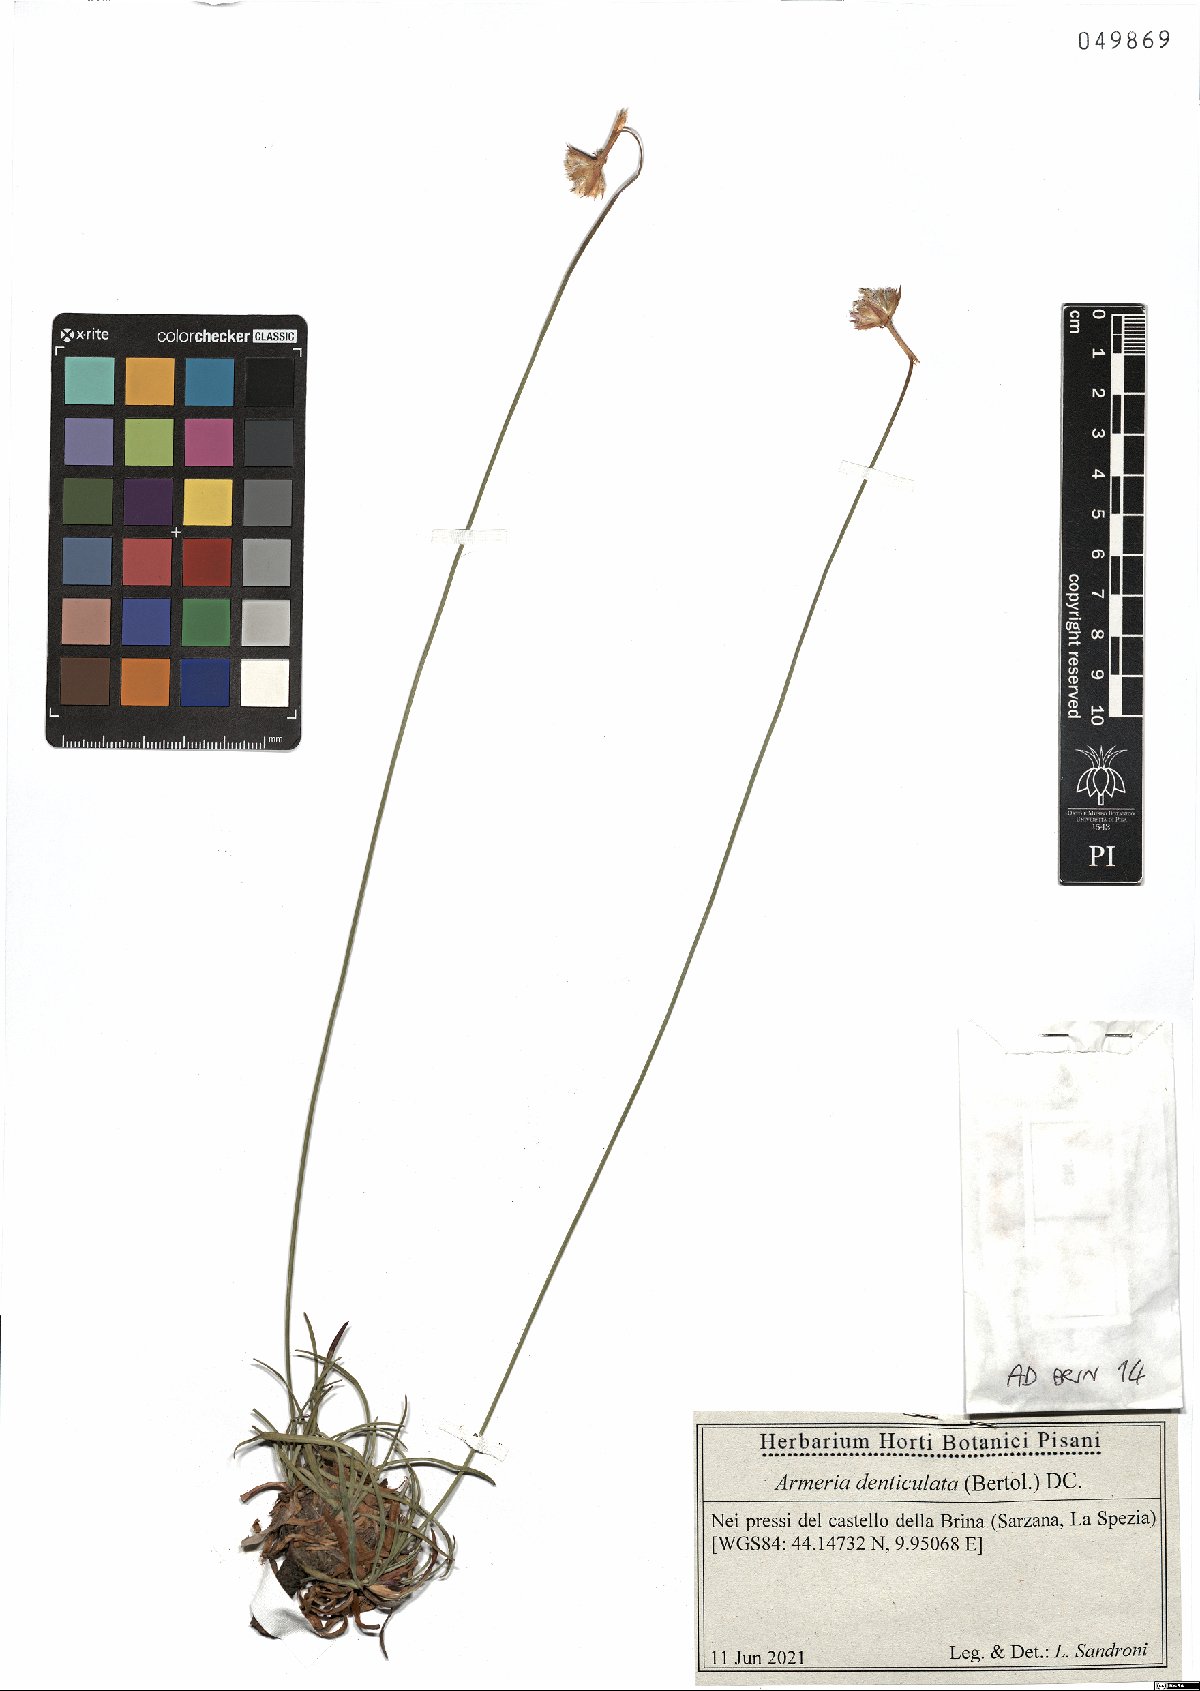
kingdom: Plantae
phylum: Tracheophyta
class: Magnoliopsida
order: Caryophyllales
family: Plumbaginaceae
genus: Armeria
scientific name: Armeria denticulata
